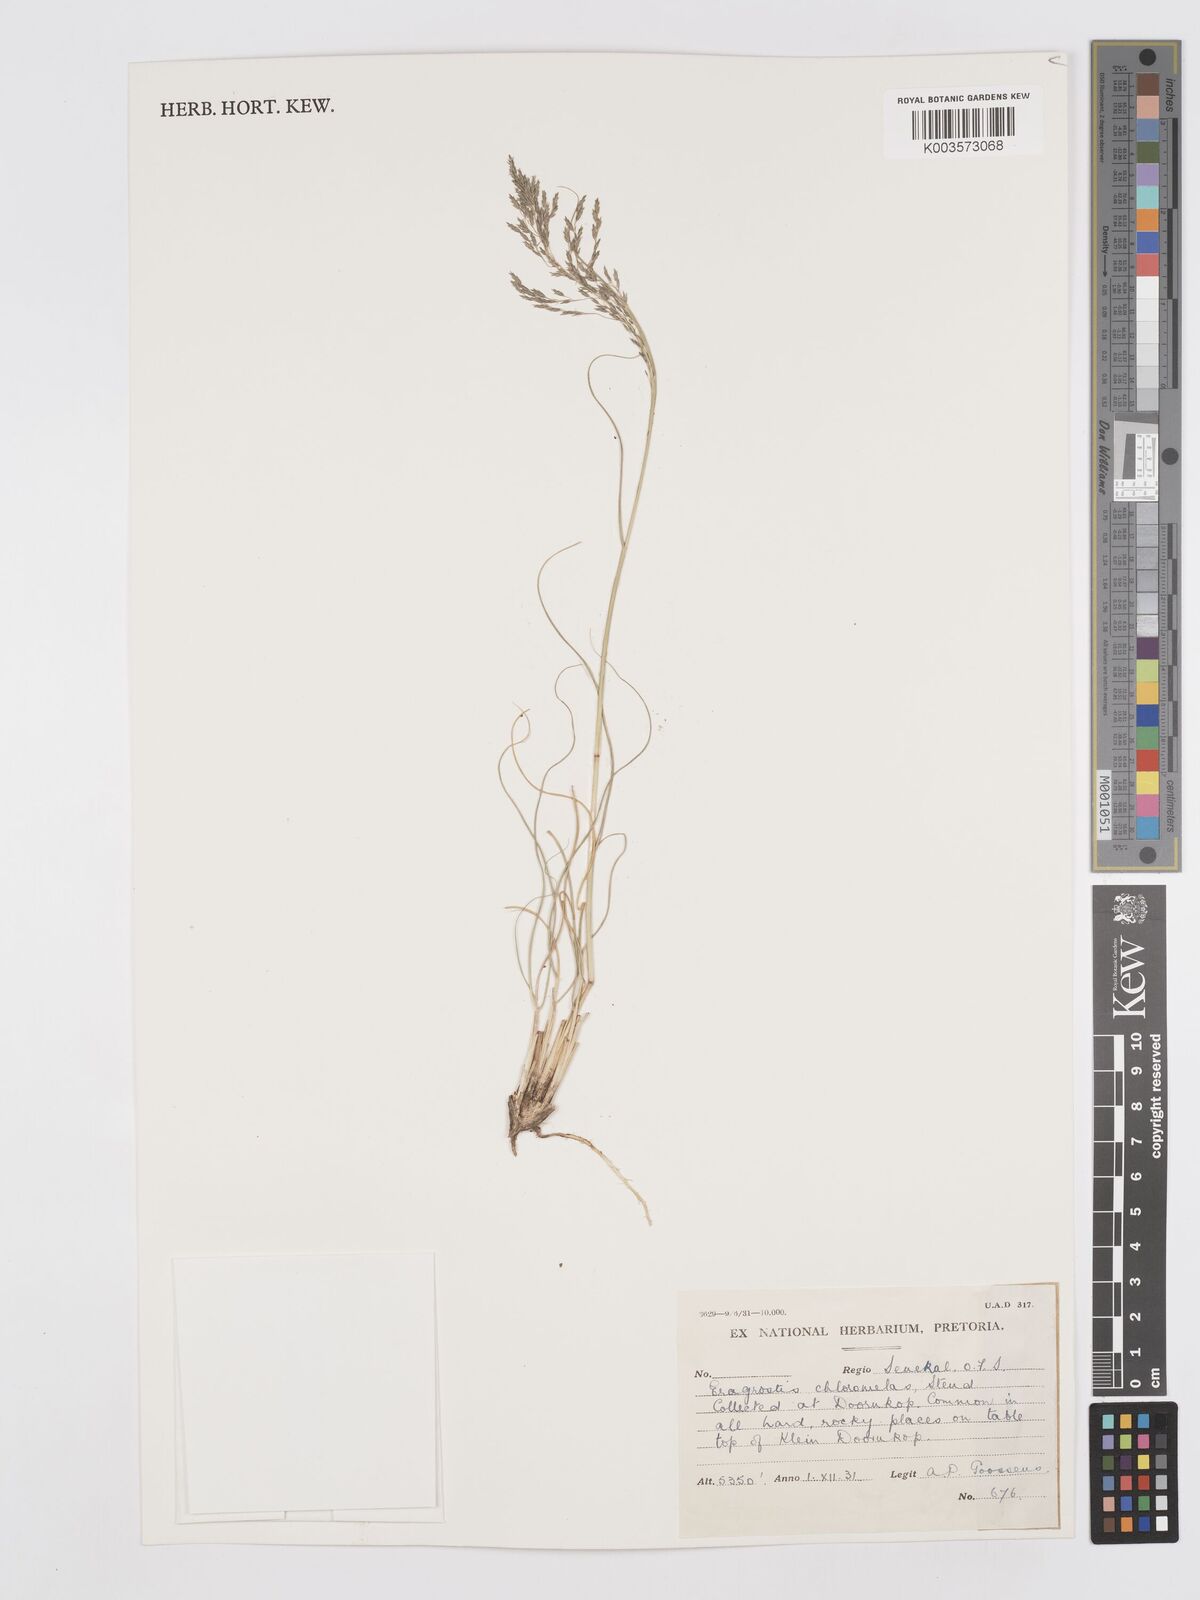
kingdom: Plantae
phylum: Tracheophyta
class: Liliopsida
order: Poales
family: Poaceae
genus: Eragrostis
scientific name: Eragrostis curvula
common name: African love-grass
